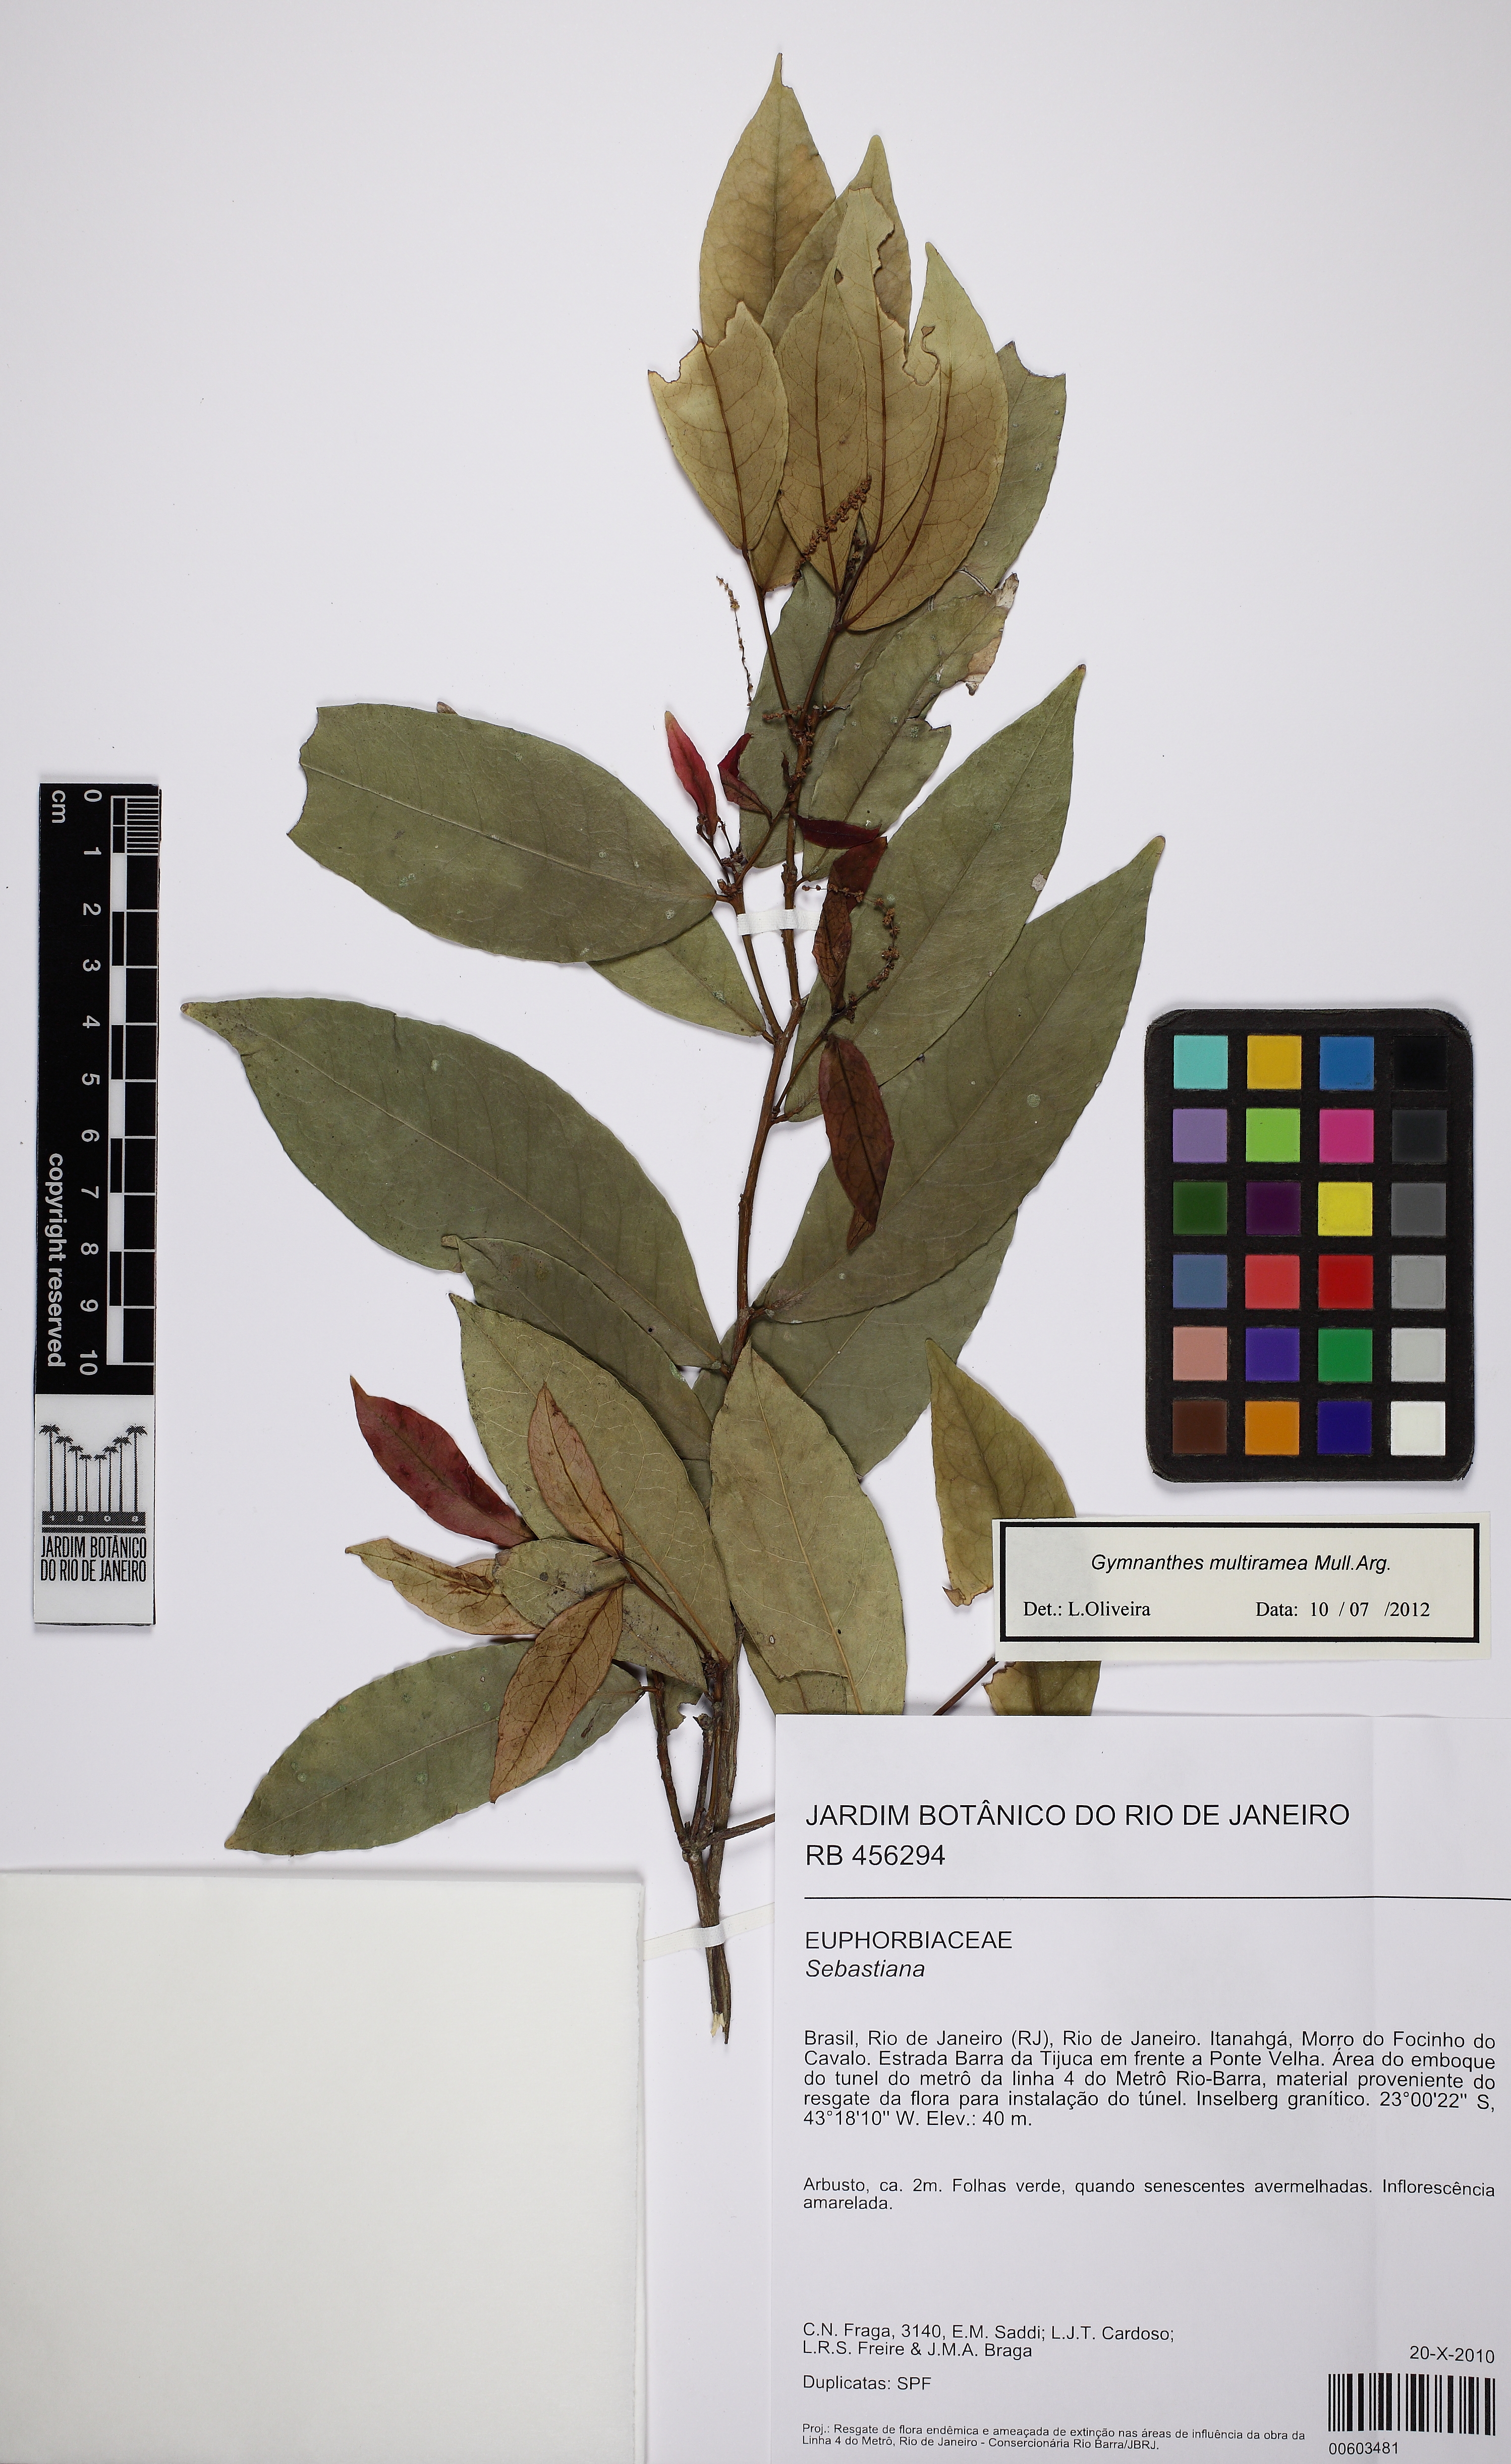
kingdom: Plantae
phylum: Tracheophyta
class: Magnoliopsida
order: Malpighiales
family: Euphorbiaceae
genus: Gymnanthes
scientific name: Gymnanthes glabrata
